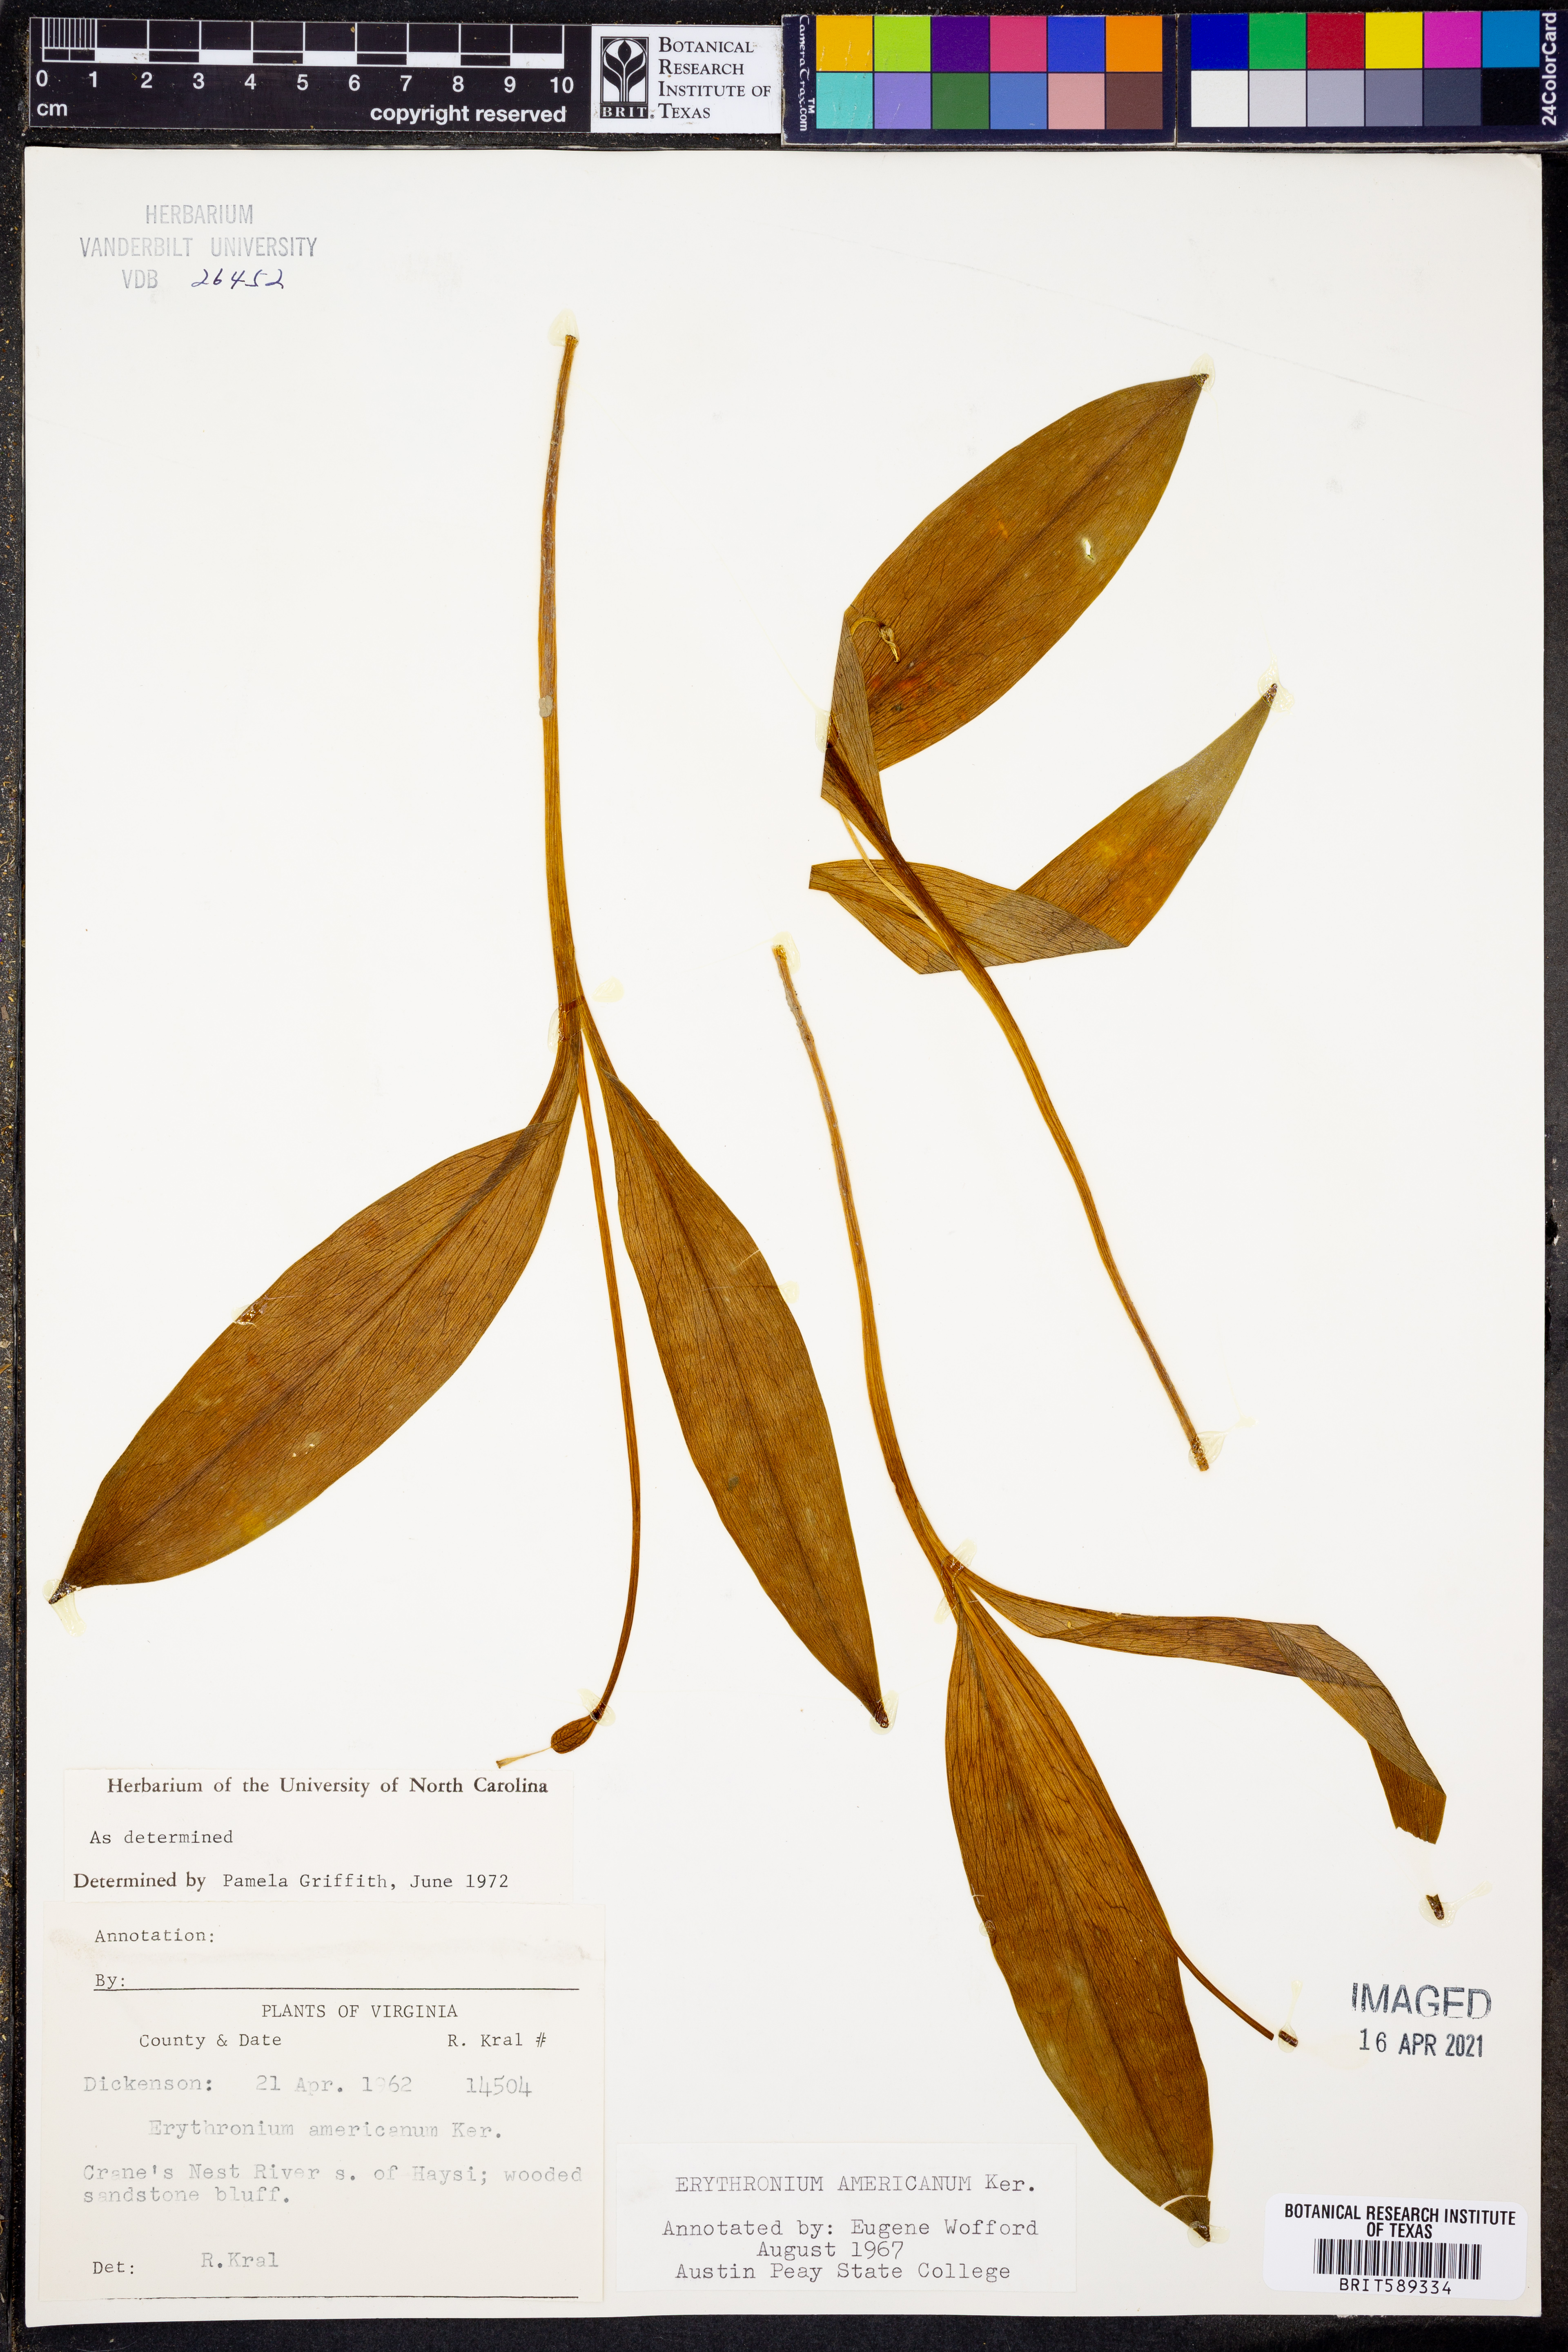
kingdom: Plantae
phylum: Tracheophyta
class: Liliopsida
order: Liliales
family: Liliaceae
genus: Erythronium
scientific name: Erythronium americanum
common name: Yellow adder's-tongue
